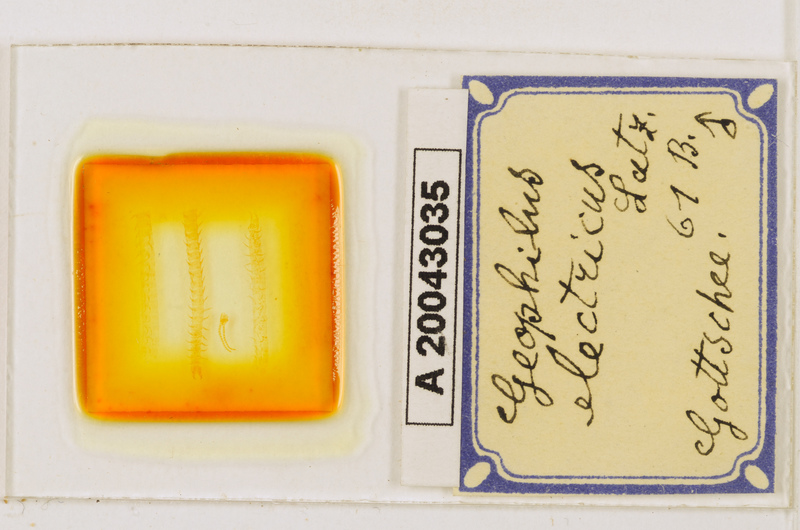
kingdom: Animalia
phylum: Arthropoda
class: Chilopoda
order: Geophilomorpha
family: Geophilidae
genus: Geophilus
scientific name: Geophilus electricus
